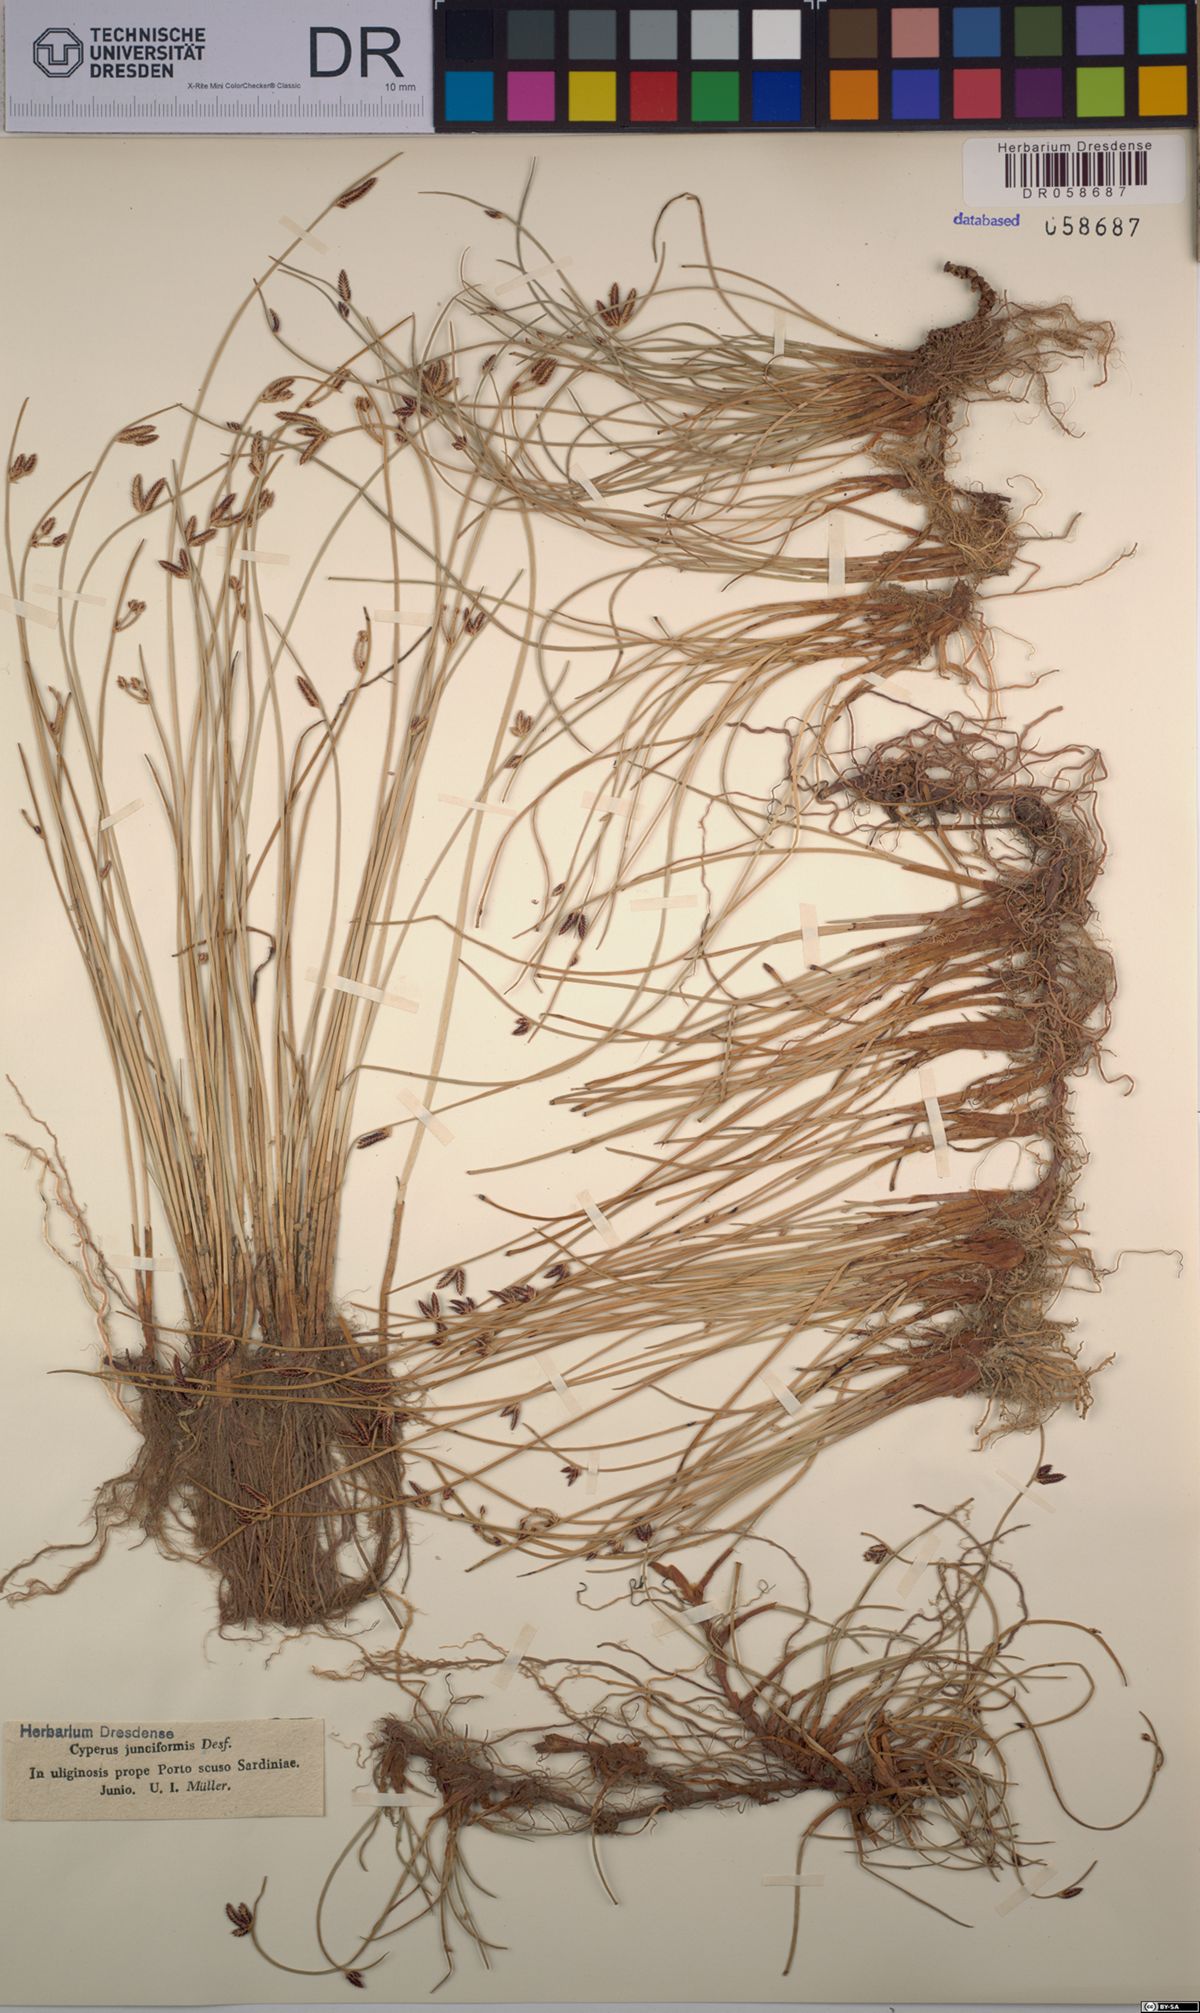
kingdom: Plantae
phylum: Tracheophyta
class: Liliopsida
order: Poales
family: Cyperaceae
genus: Cyperus
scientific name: Cyperus laevigatus
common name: Smooth flat sedge
